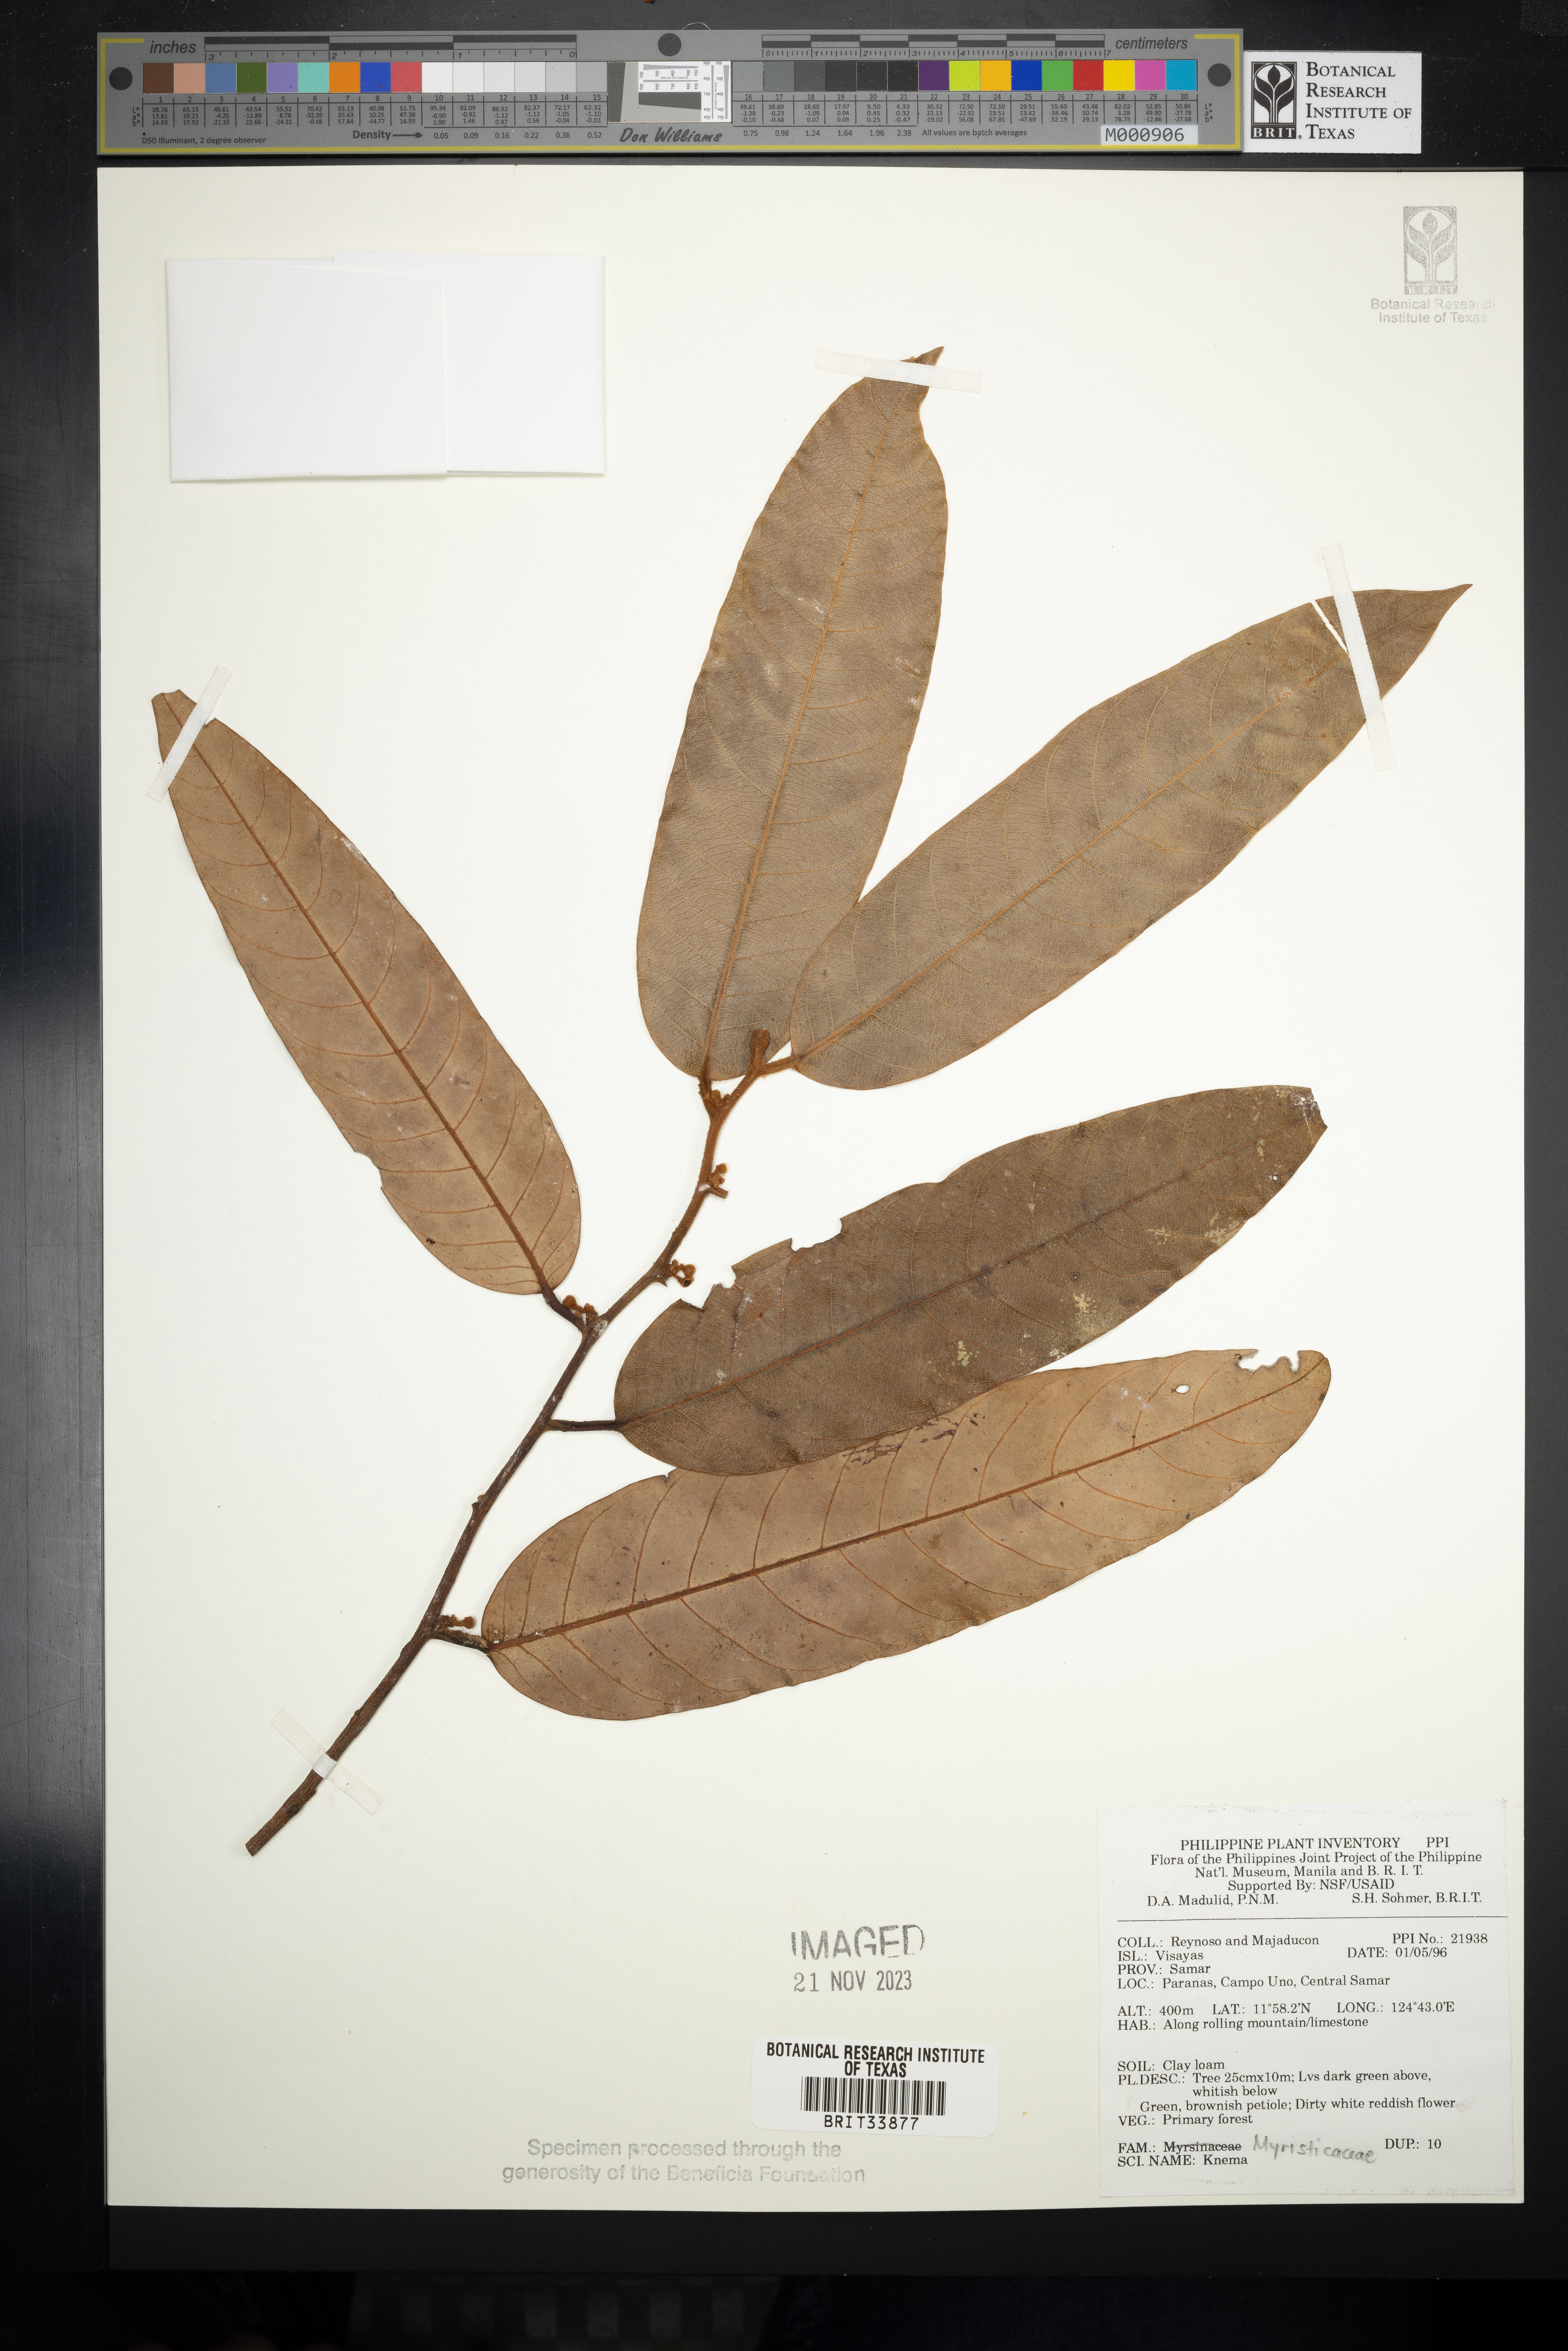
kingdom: Plantae
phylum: Tracheophyta
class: Magnoliopsida
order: Magnoliales
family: Myristicaceae
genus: Knema
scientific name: Knema
